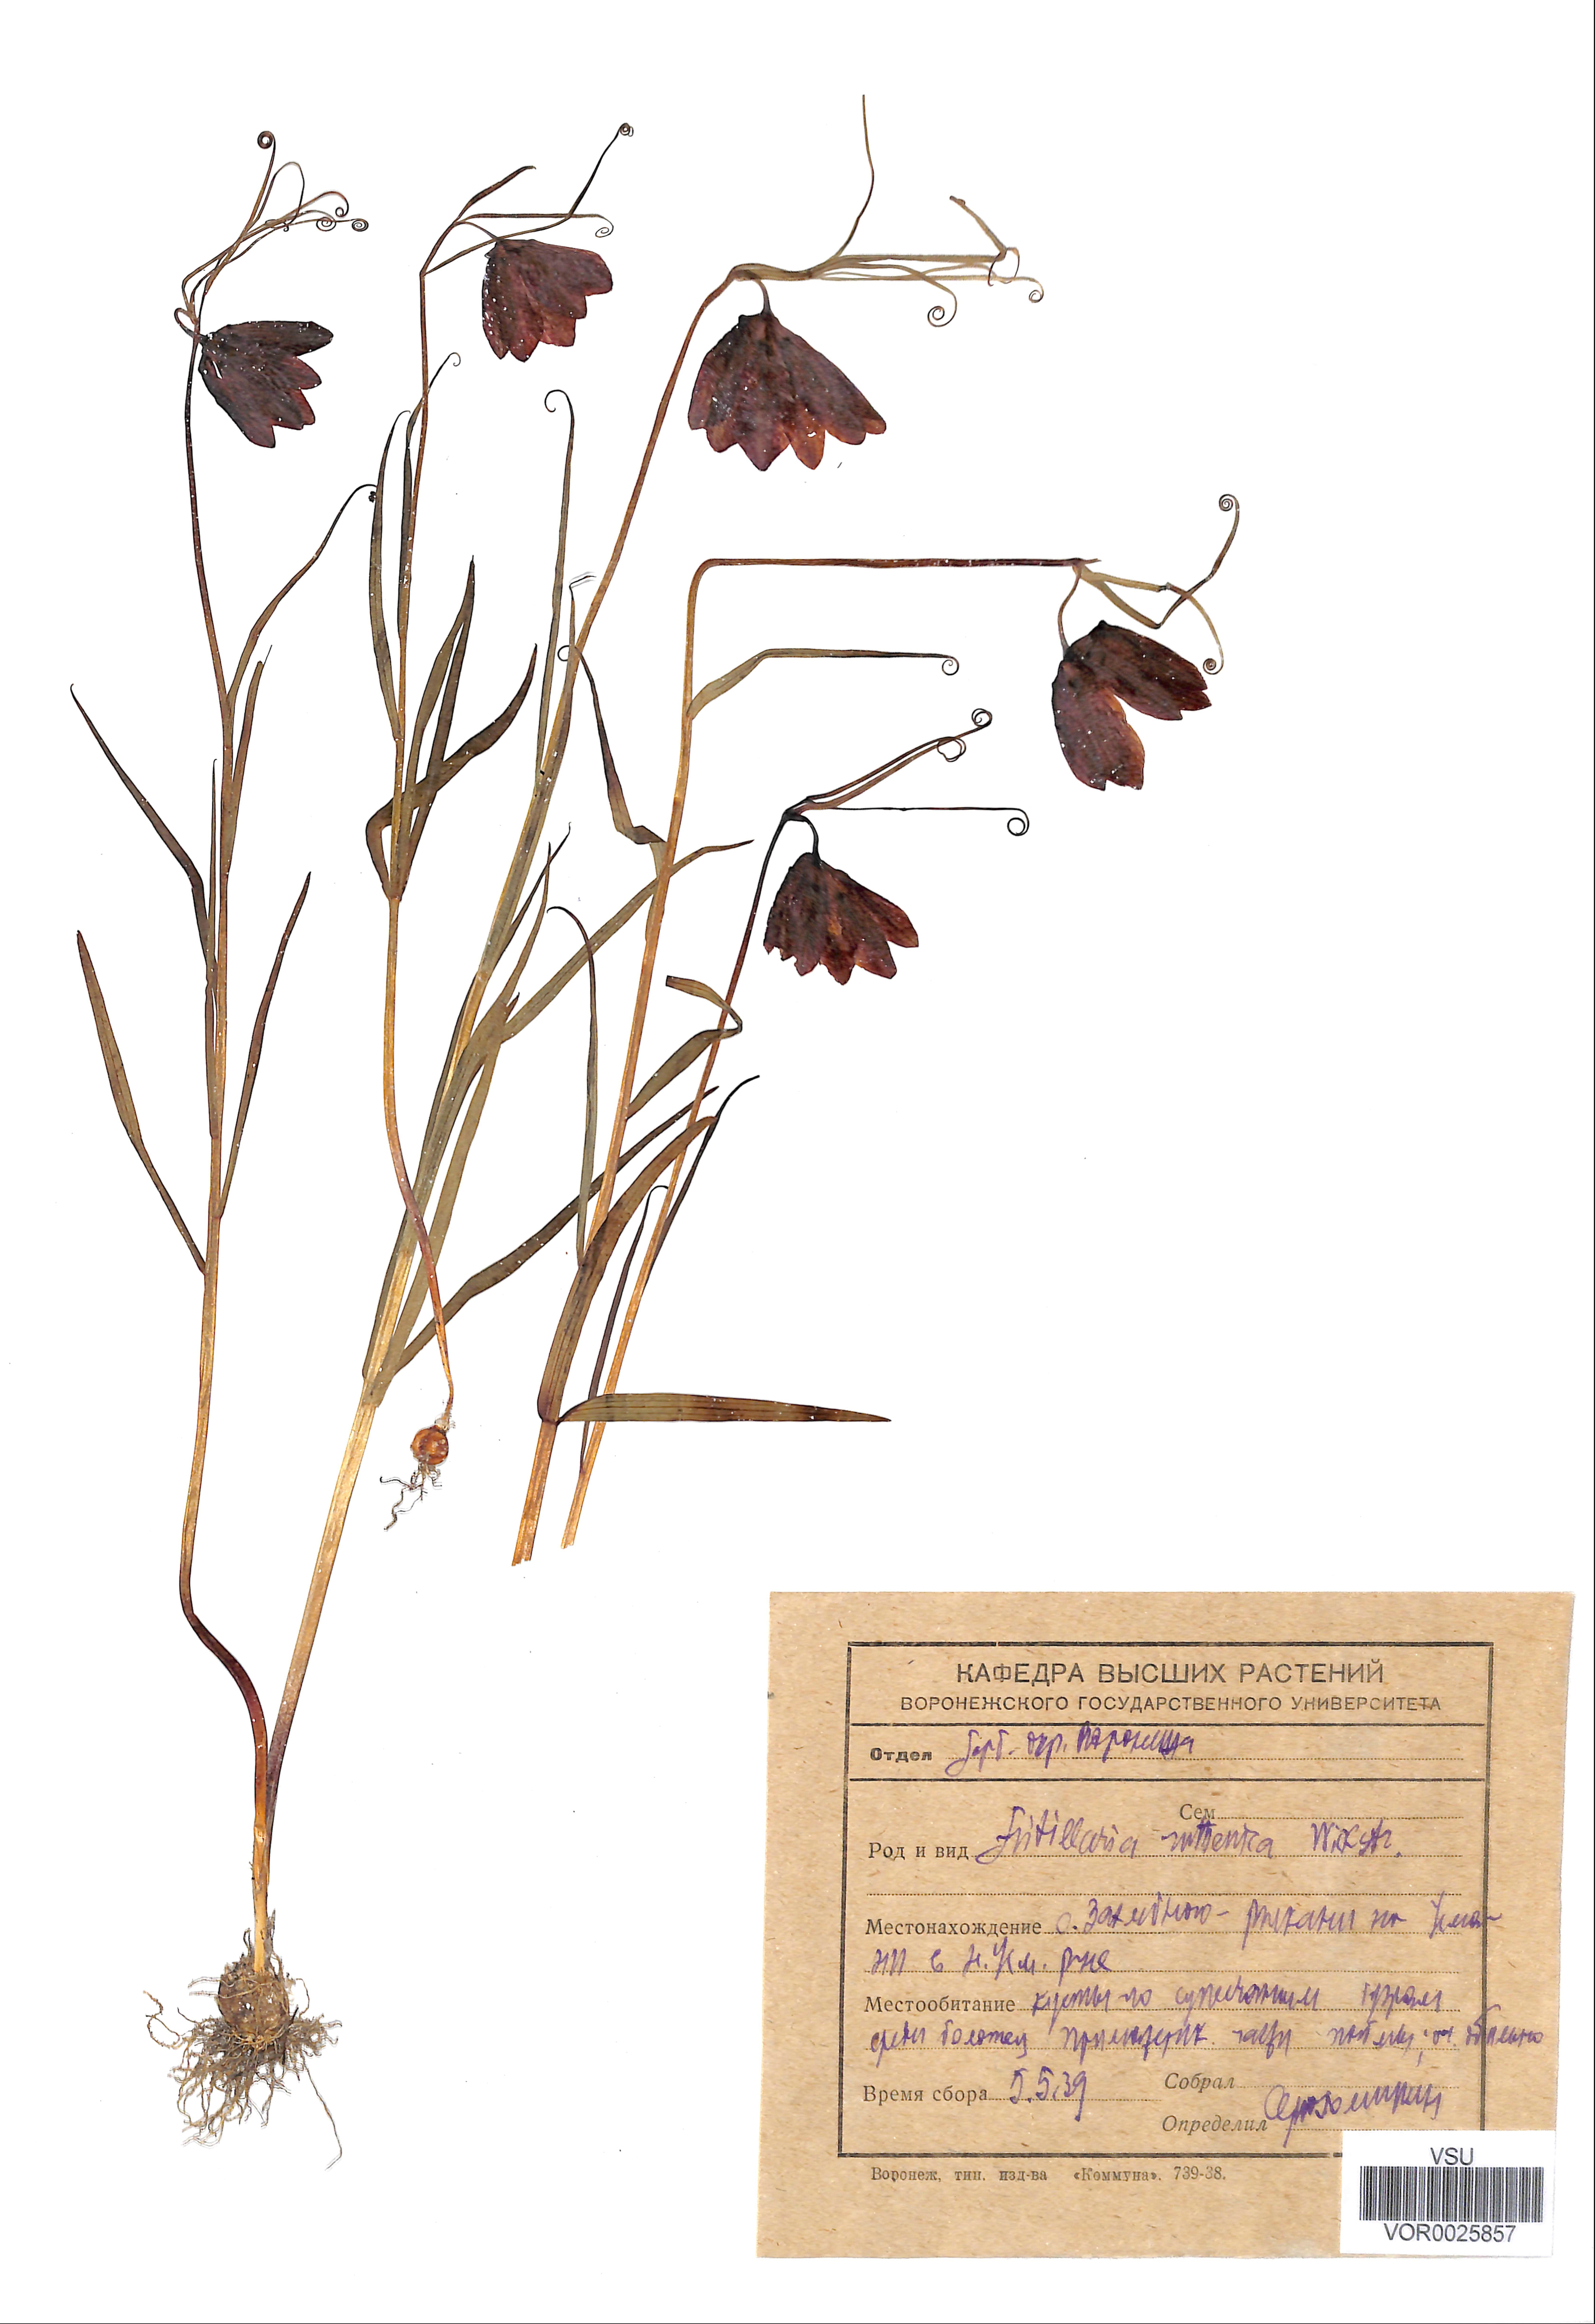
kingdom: Plantae
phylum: Tracheophyta
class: Liliopsida
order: Liliales
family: Liliaceae
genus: Fritillaria
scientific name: Fritillaria ruthenica
